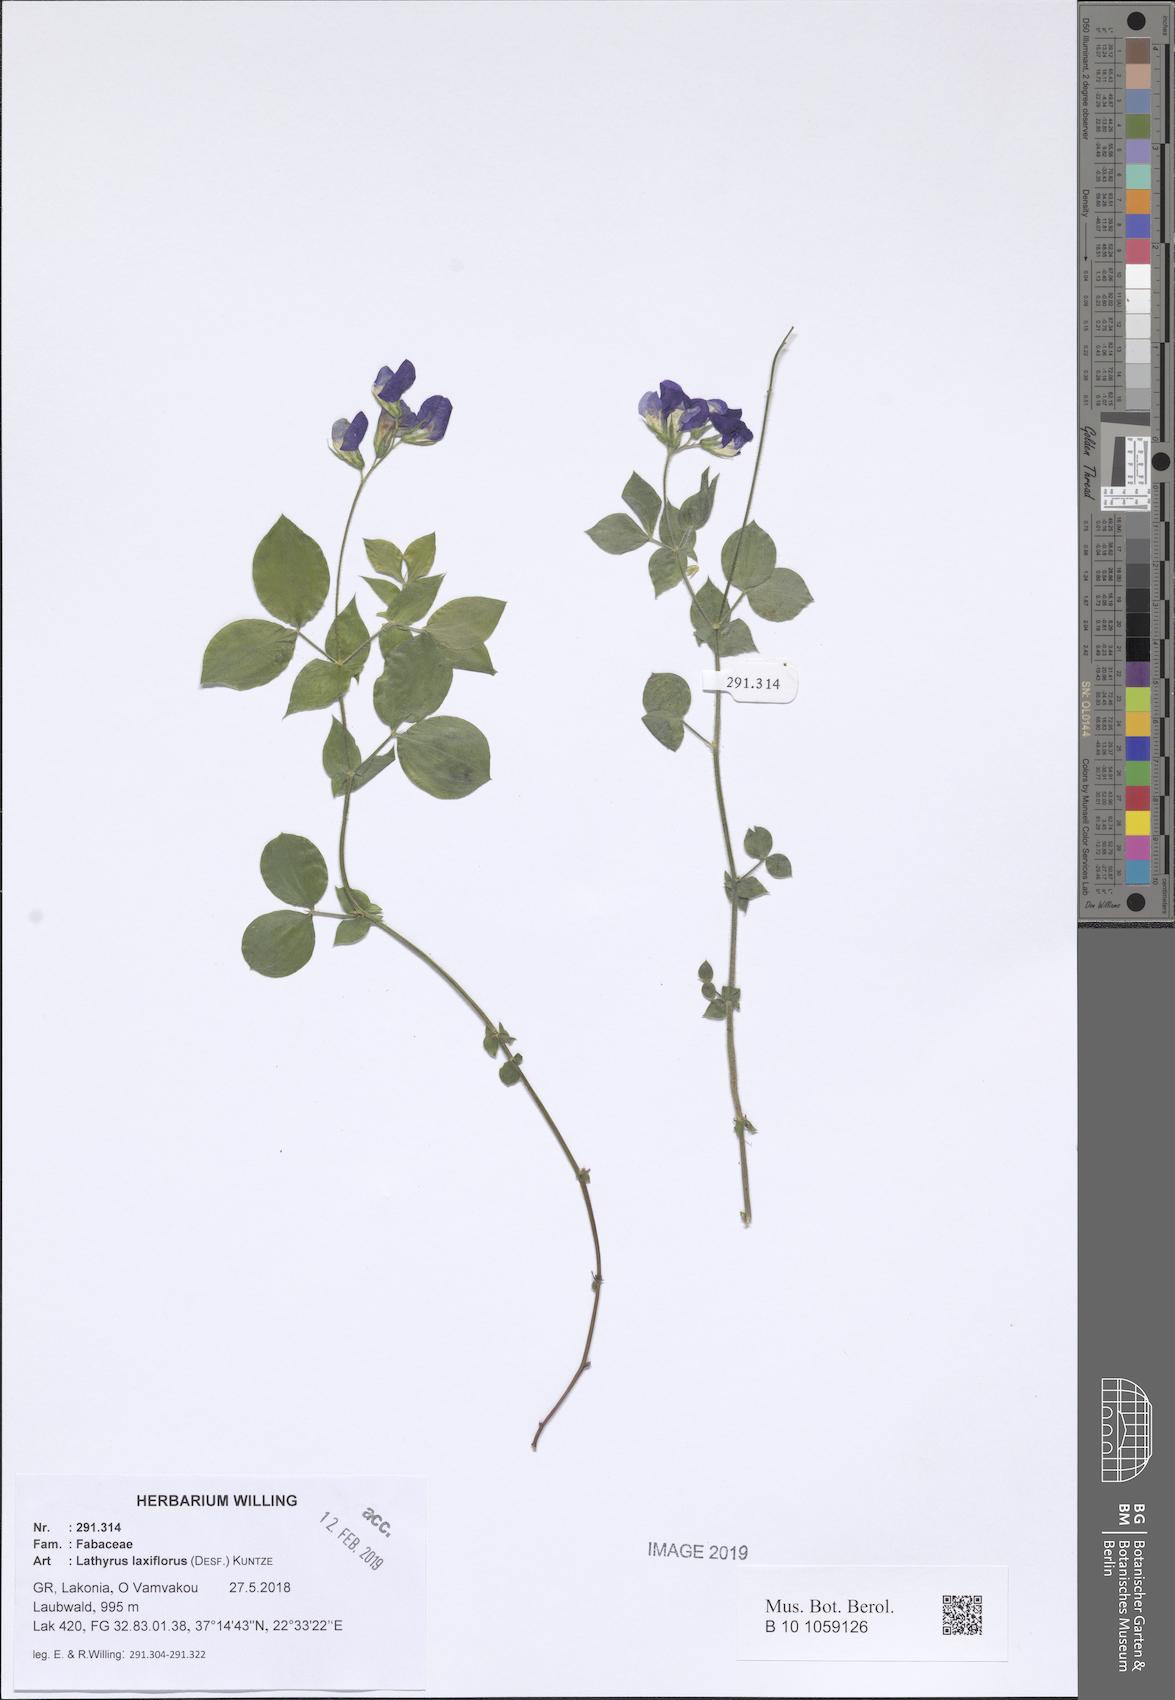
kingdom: Plantae
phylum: Tracheophyta
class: Magnoliopsida
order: Fabales
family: Fabaceae
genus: Lathyrus
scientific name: Lathyrus laxiflorus
